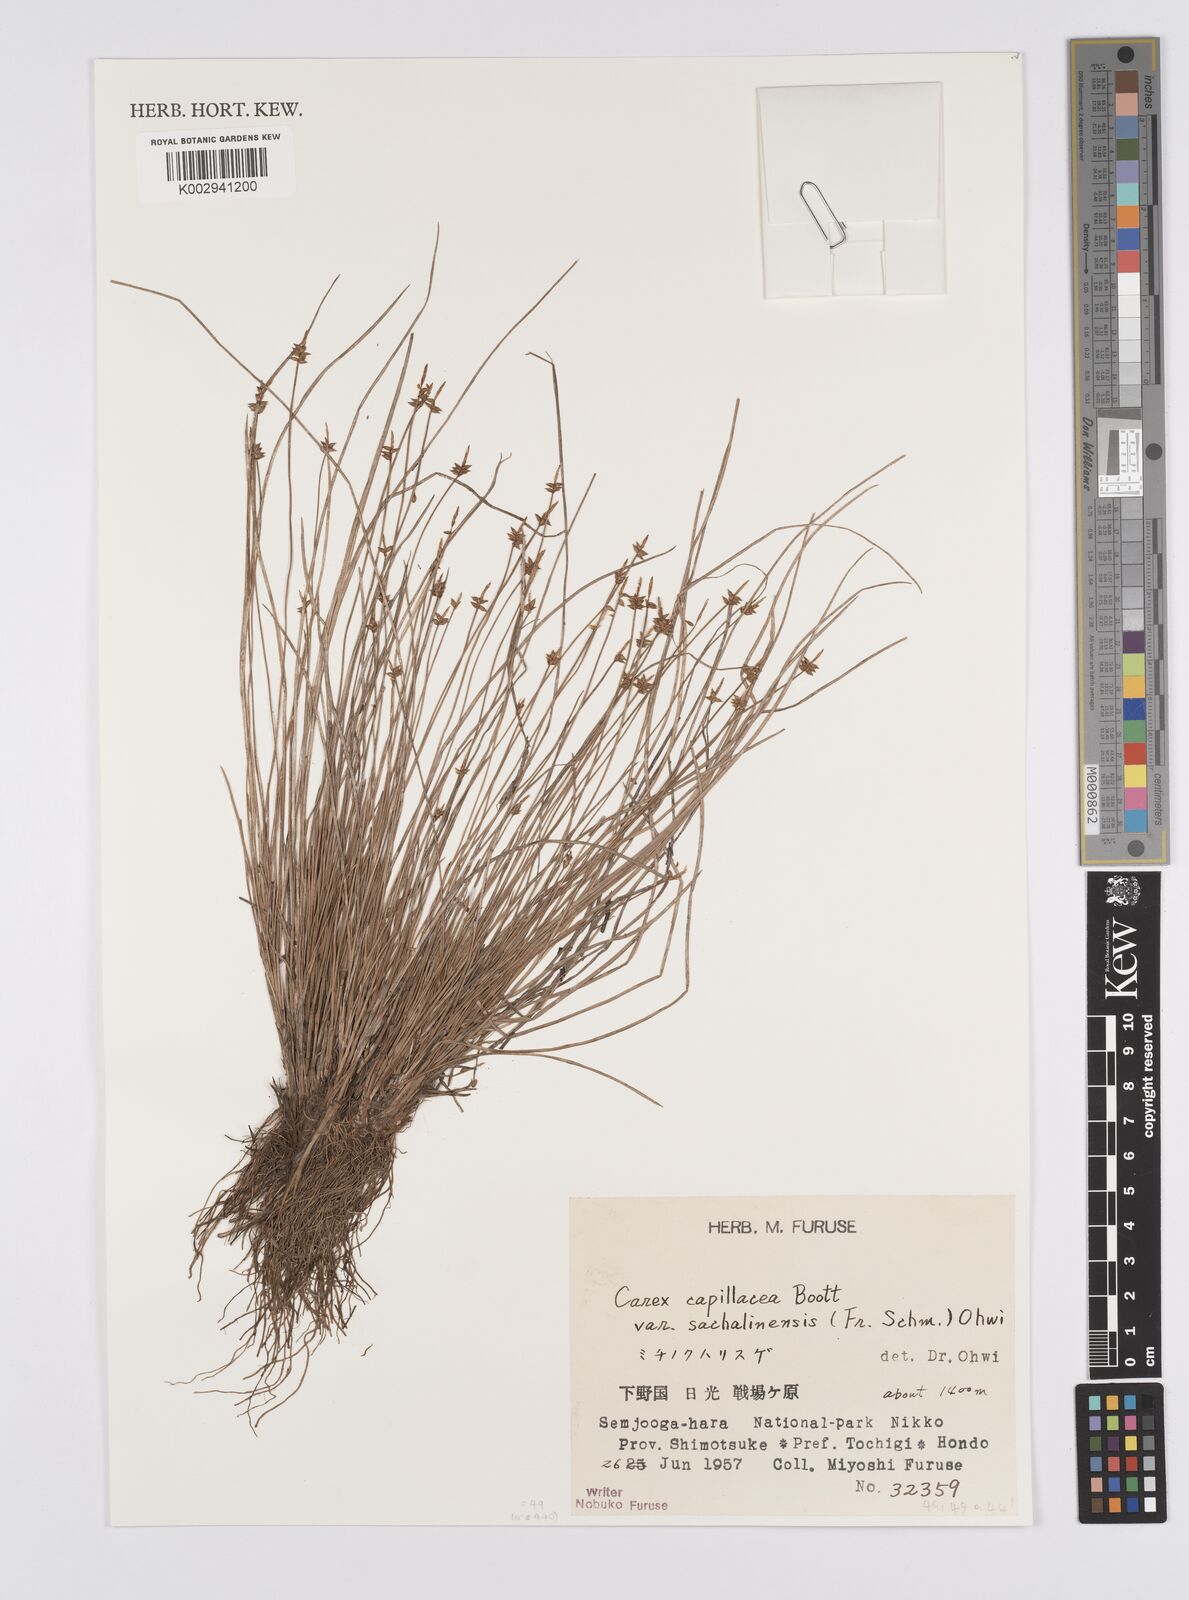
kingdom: Plantae
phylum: Tracheophyta
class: Liliopsida
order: Poales
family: Cyperaceae
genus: Carex
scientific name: Carex pisiformis
